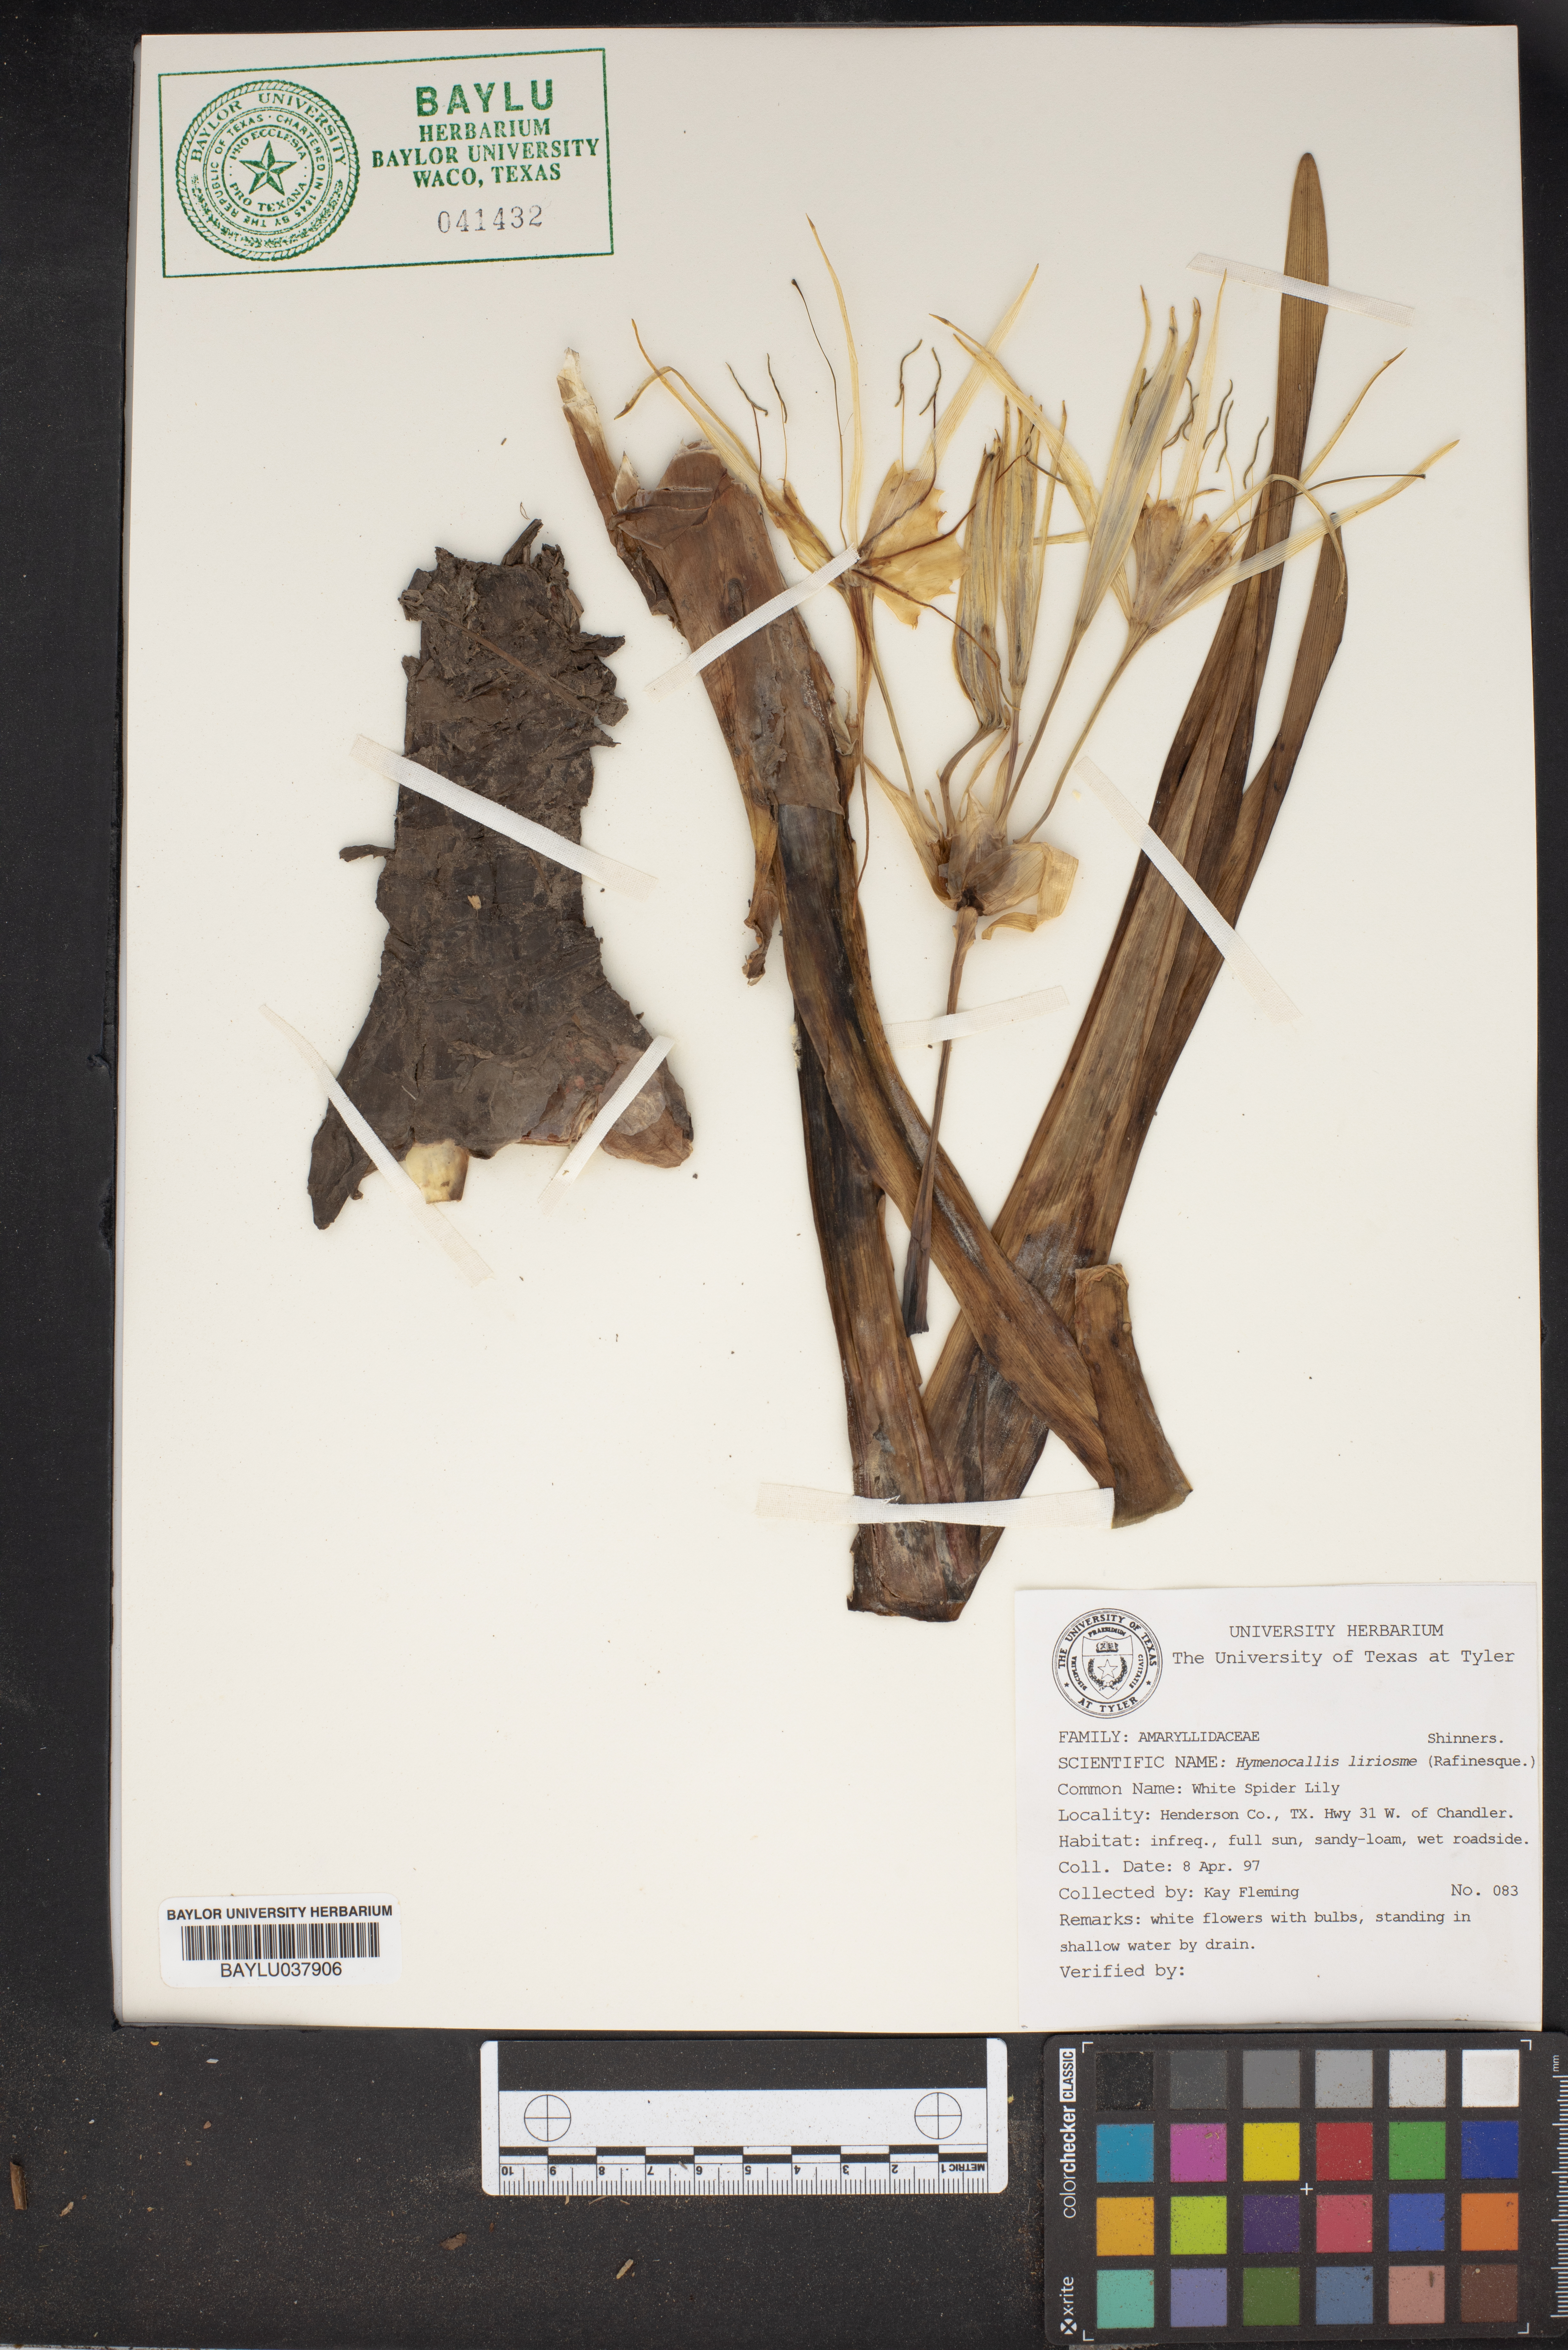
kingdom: Plantae
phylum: Tracheophyta
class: Liliopsida
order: Asparagales
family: Amaryllidaceae
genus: Hymenocallis
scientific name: Hymenocallis liriosme
